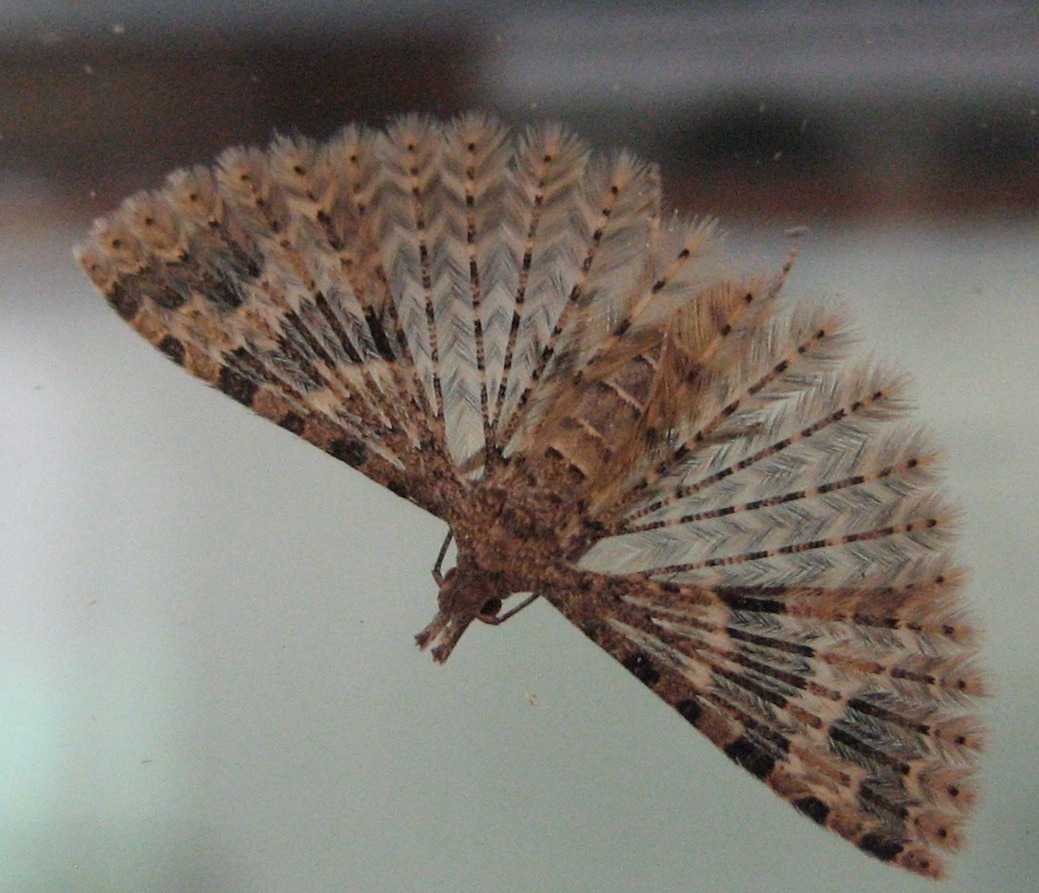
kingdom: Animalia
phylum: Arthropoda
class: Insecta
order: Lepidoptera
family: Alucitidae
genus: Alucita
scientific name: Alucita hexadactyla
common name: Kaprifoliefjermøl
